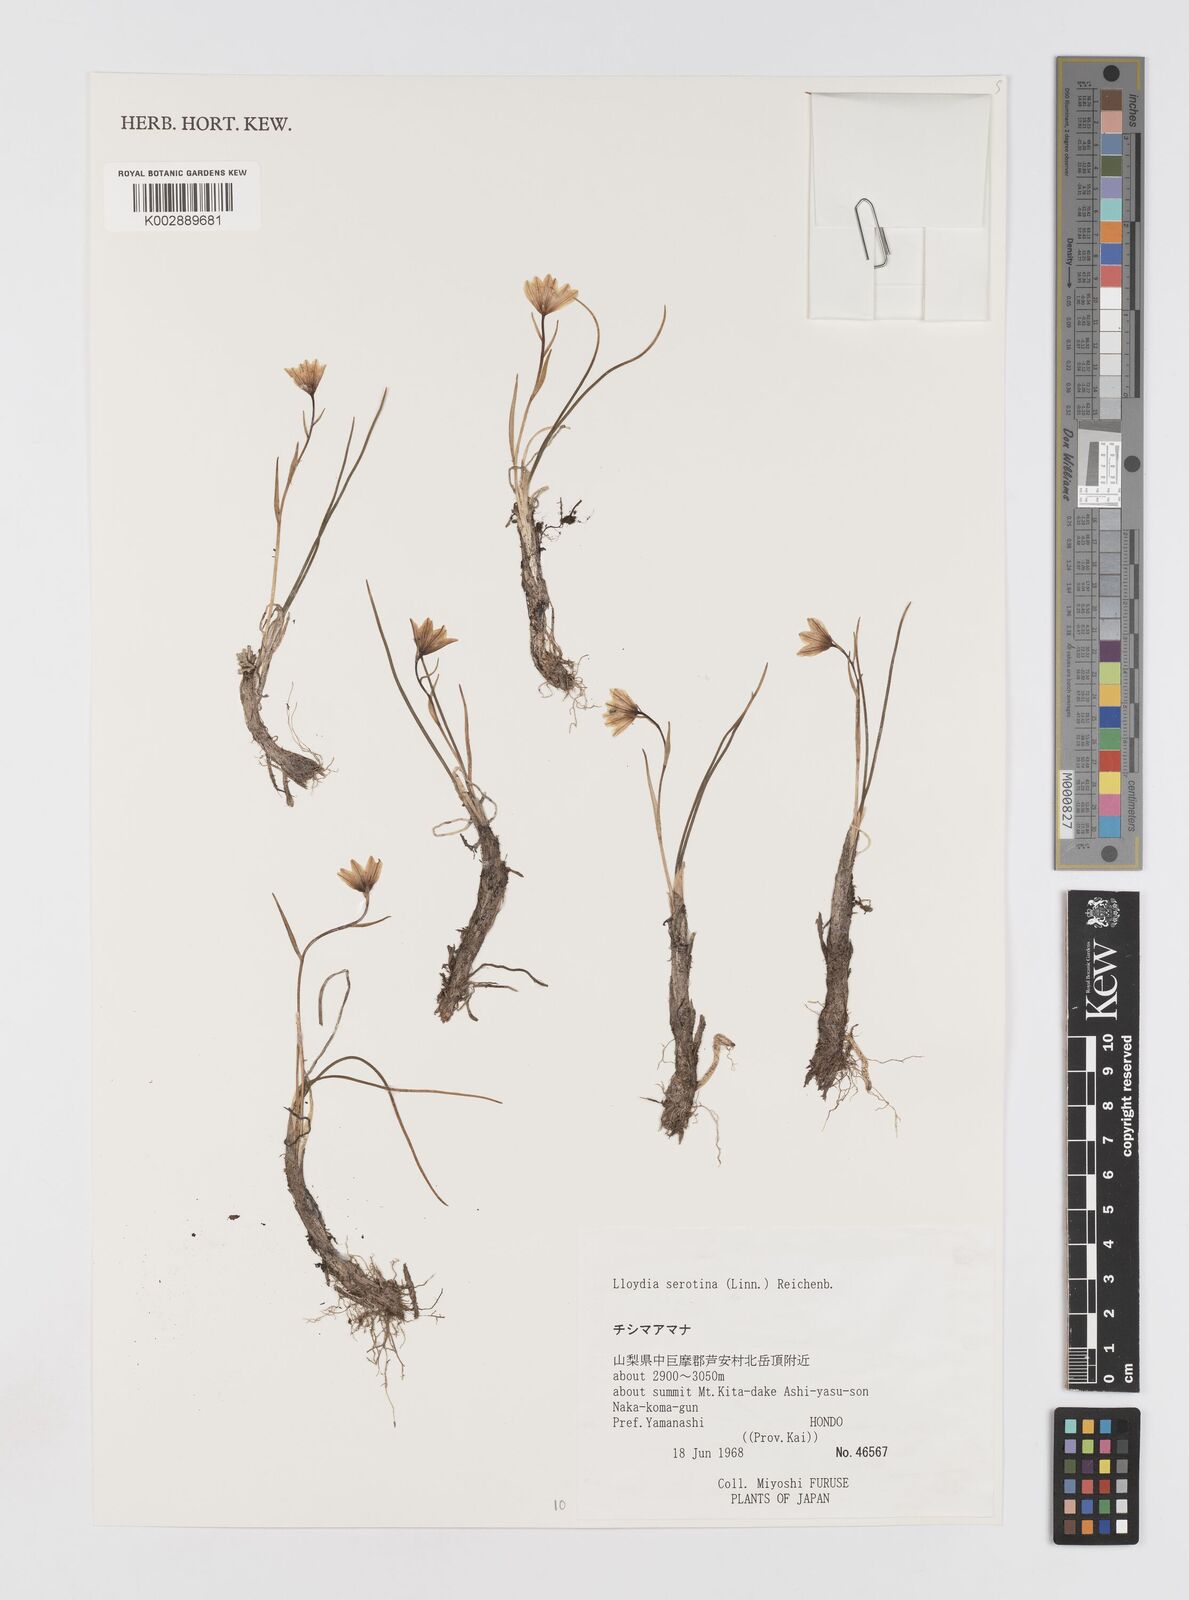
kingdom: Plantae
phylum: Tracheophyta
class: Liliopsida
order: Liliales
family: Liliaceae
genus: Gagea
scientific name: Gagea serotina
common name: Snowdon lily
